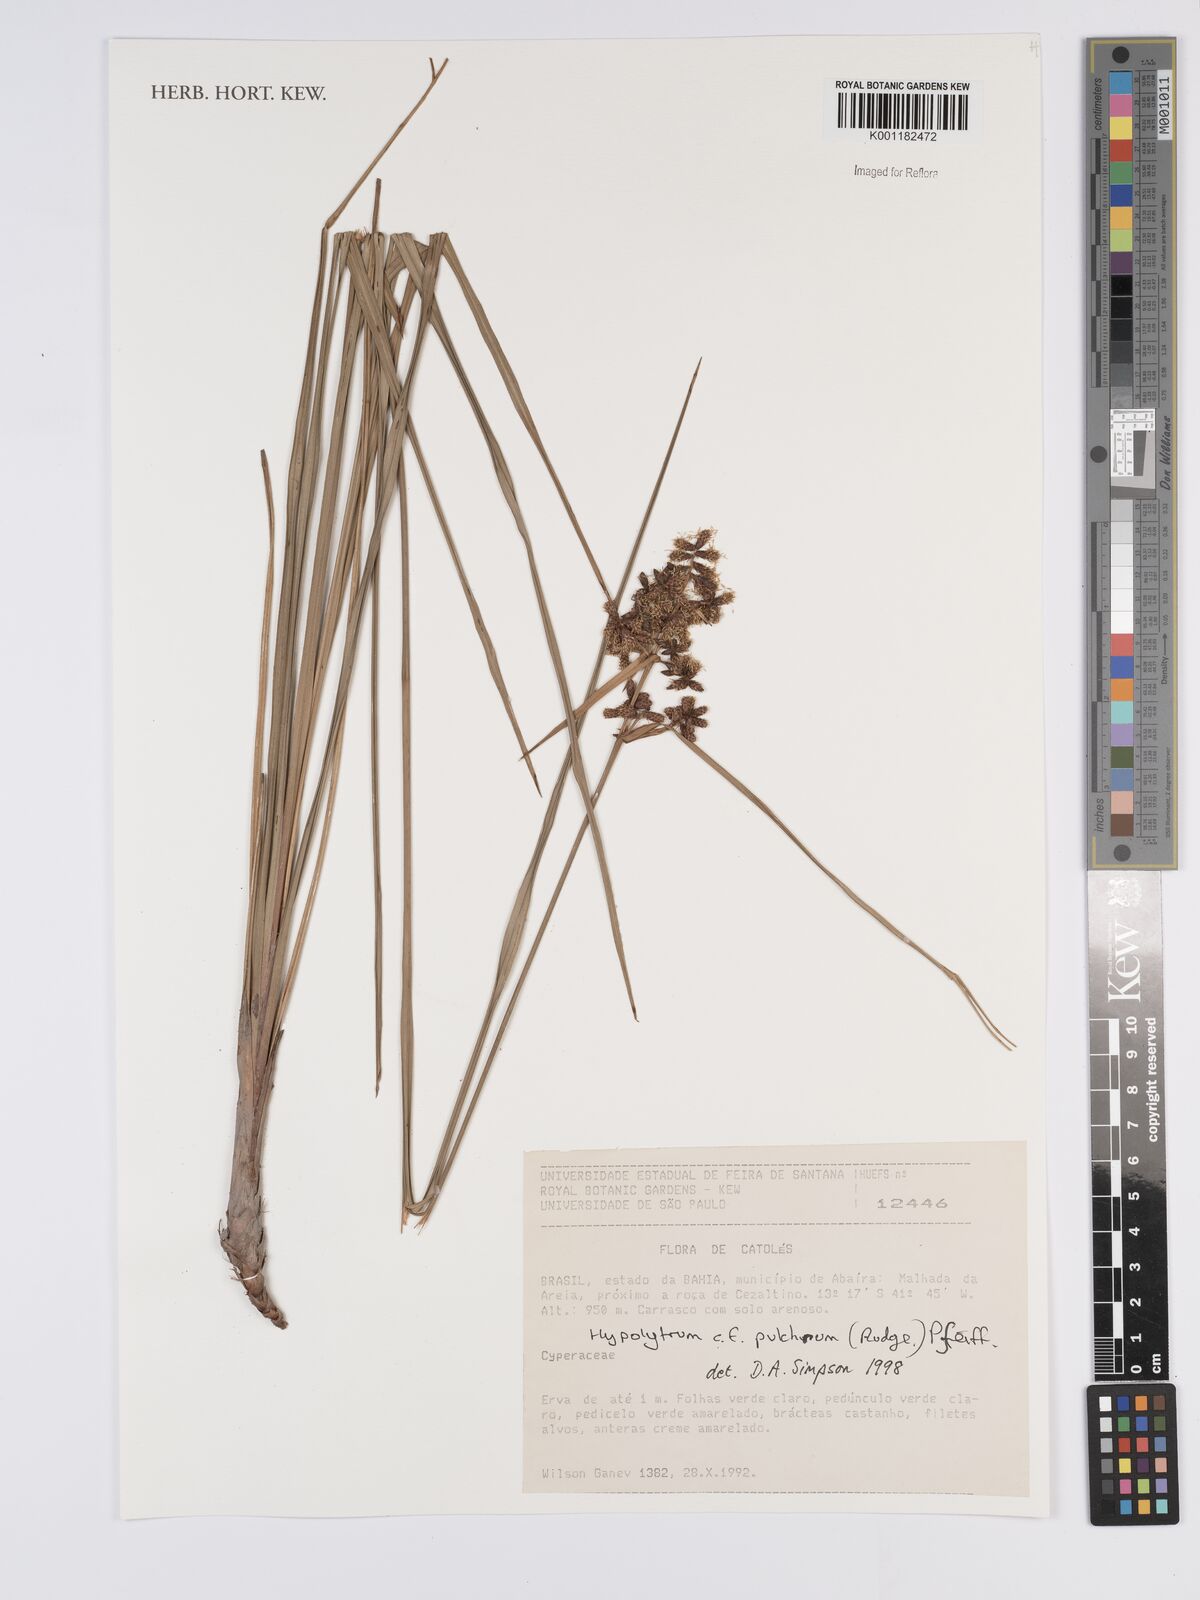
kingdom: Plantae
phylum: Tracheophyta
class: Liliopsida
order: Poales
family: Cyperaceae
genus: Hypolytrum
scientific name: Hypolytrum pulchrum
